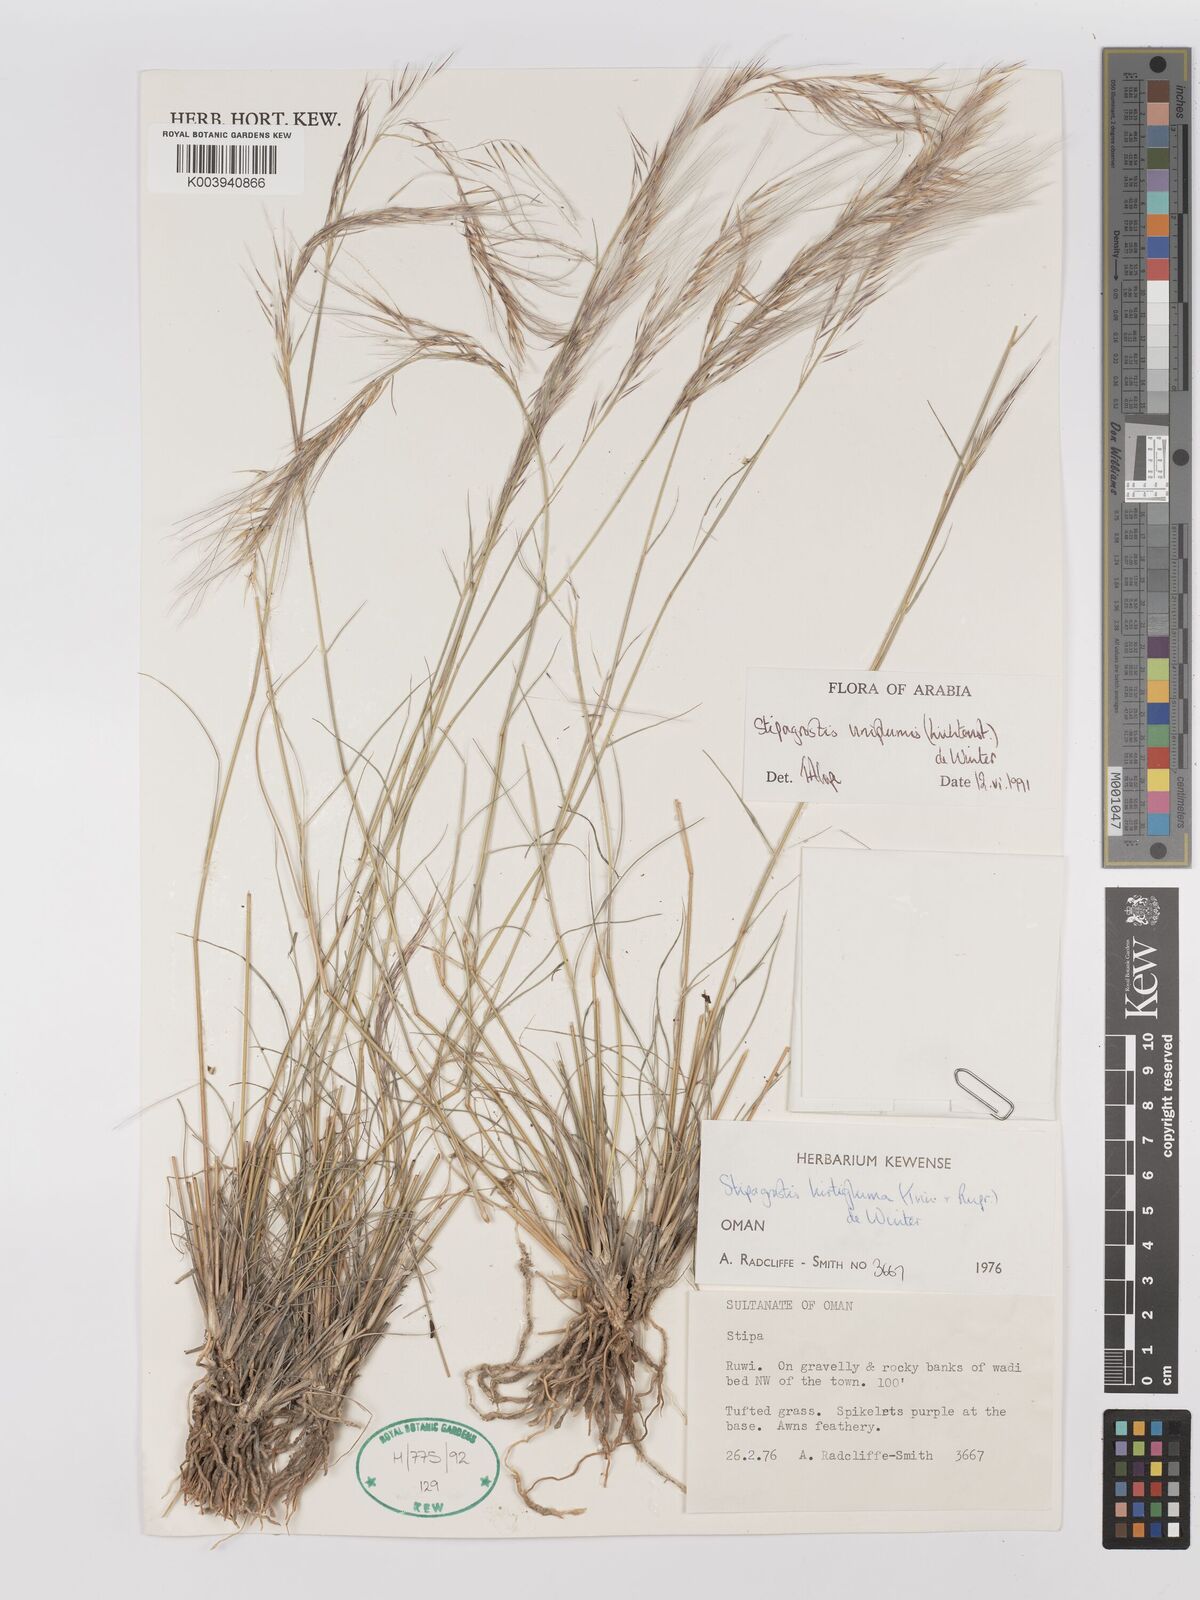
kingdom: Plantae
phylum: Tracheophyta
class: Liliopsida
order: Poales
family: Poaceae
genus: Stipagrostis
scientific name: Stipagrostis uniplumis
